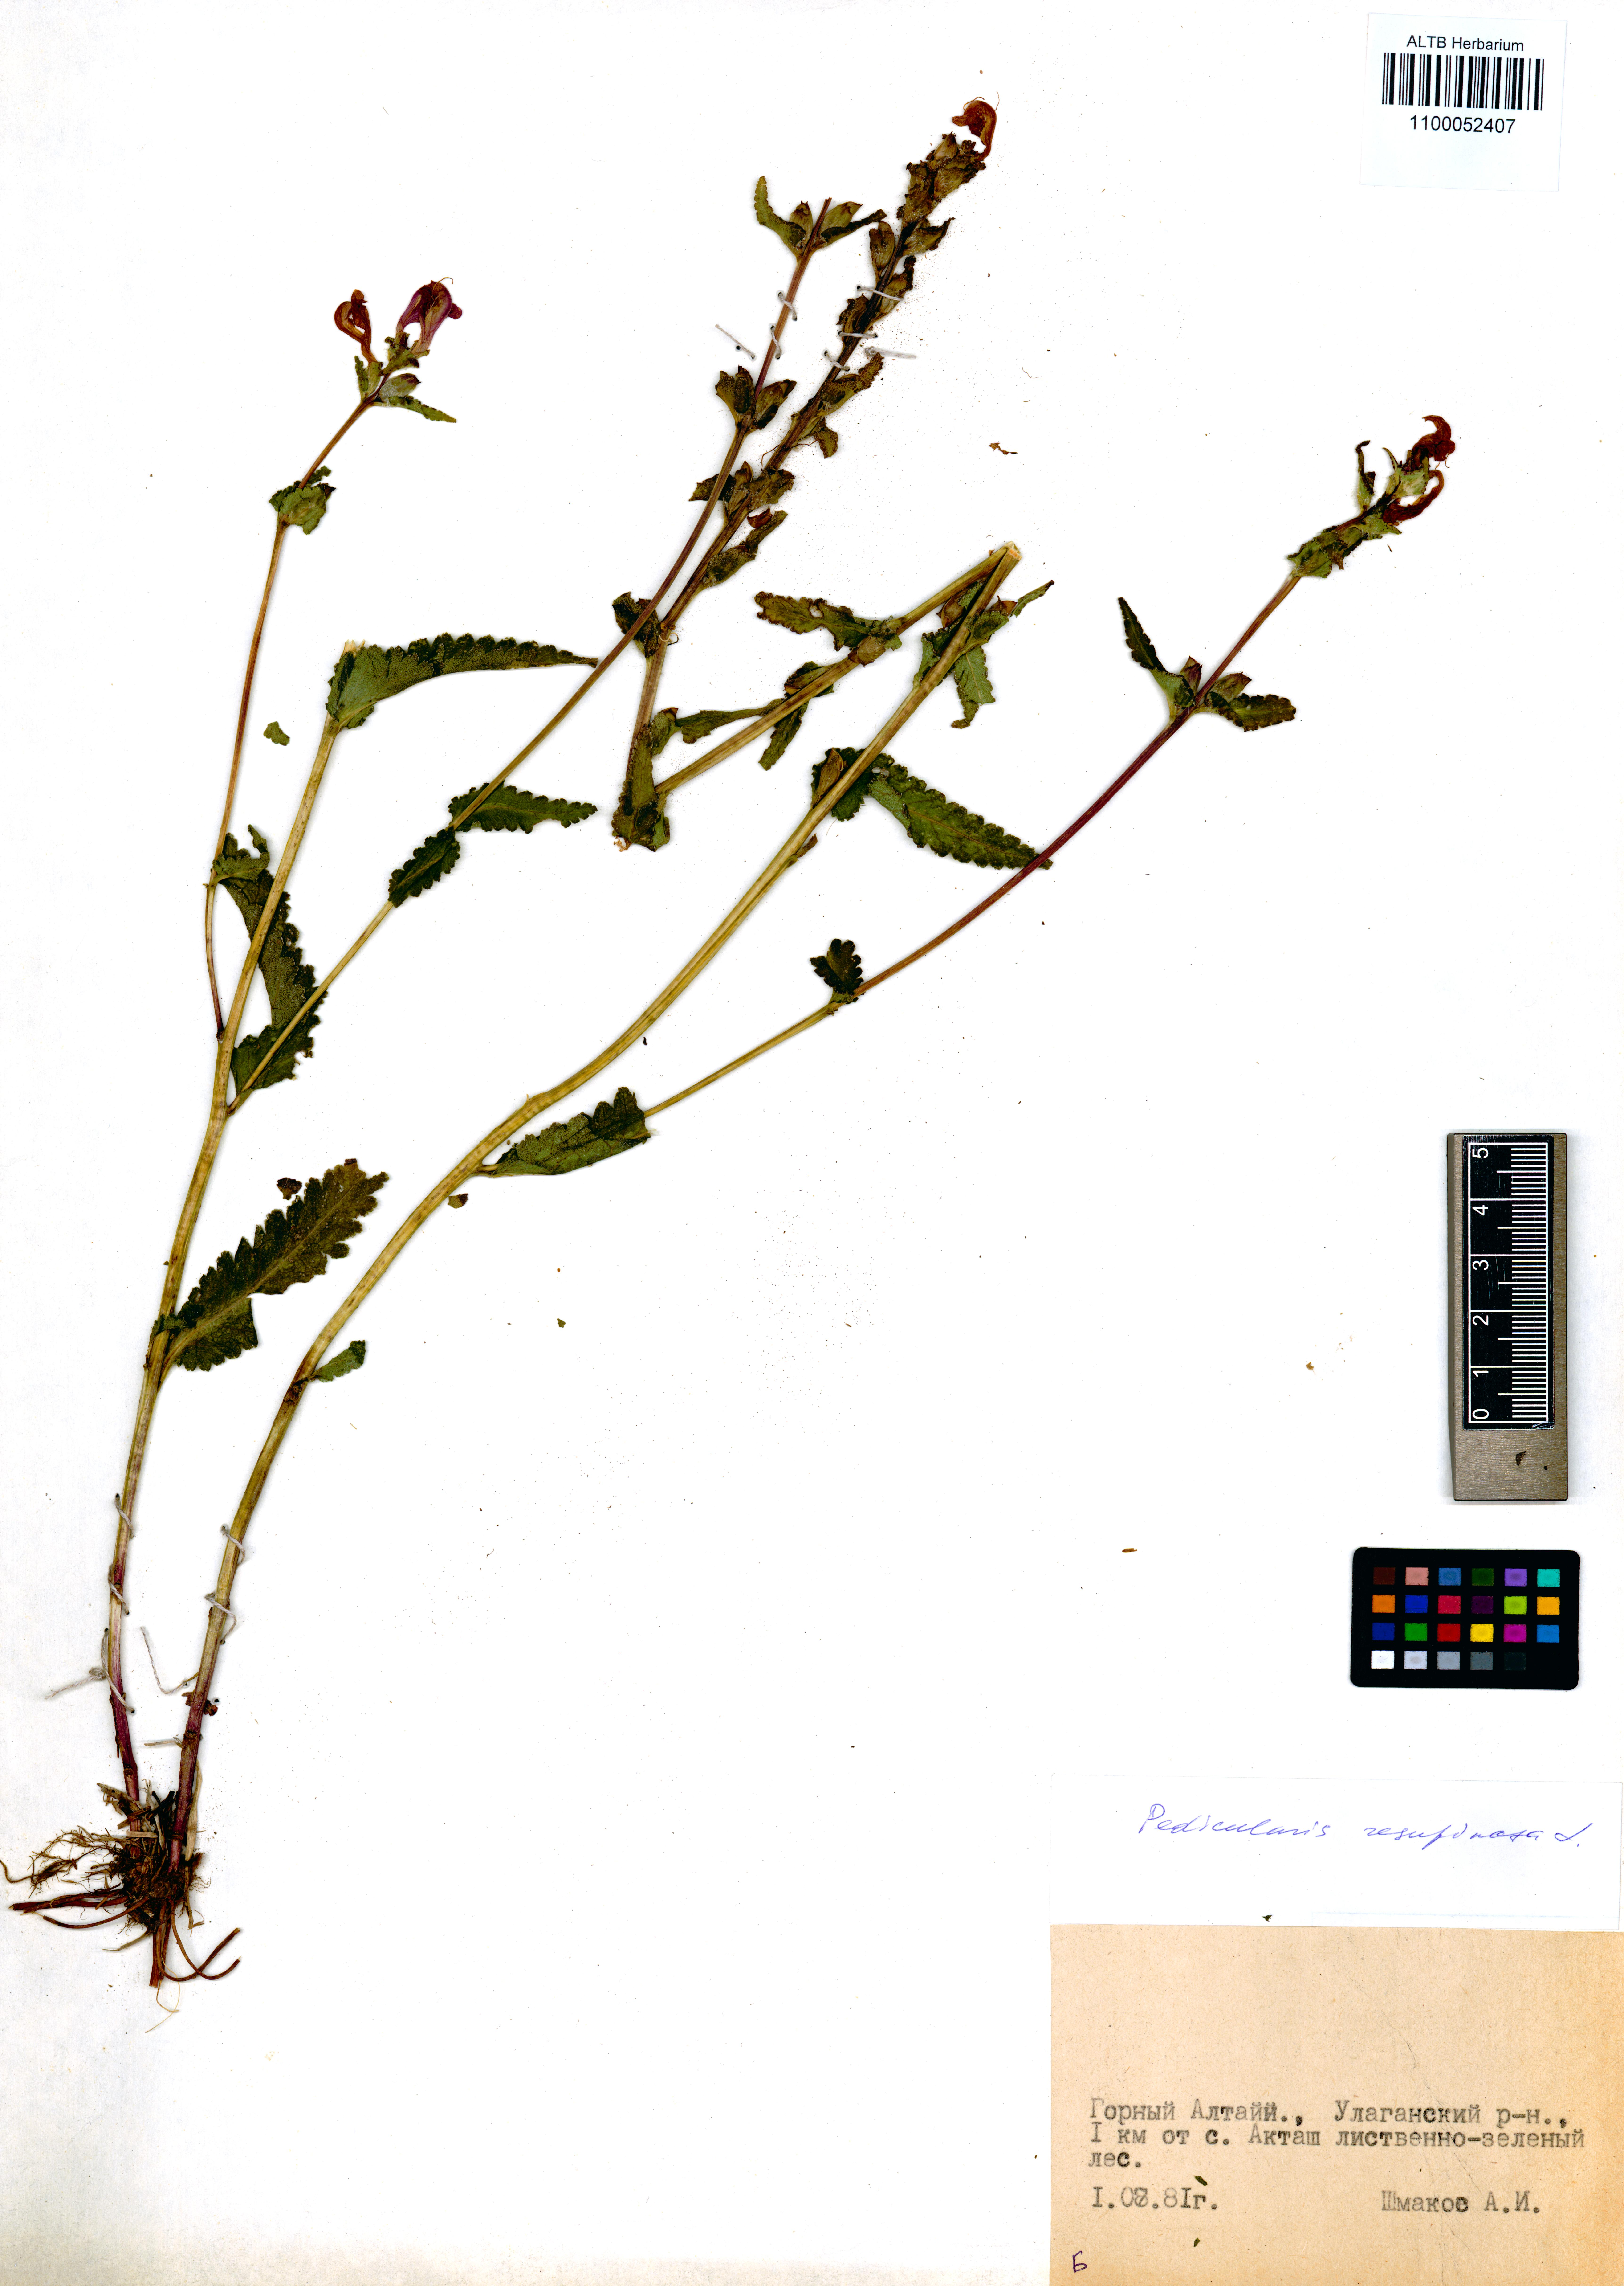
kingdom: Plantae
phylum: Tracheophyta
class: Magnoliopsida
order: Lamiales
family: Orobanchaceae
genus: Pedicularis
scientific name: Pedicularis resupinata
